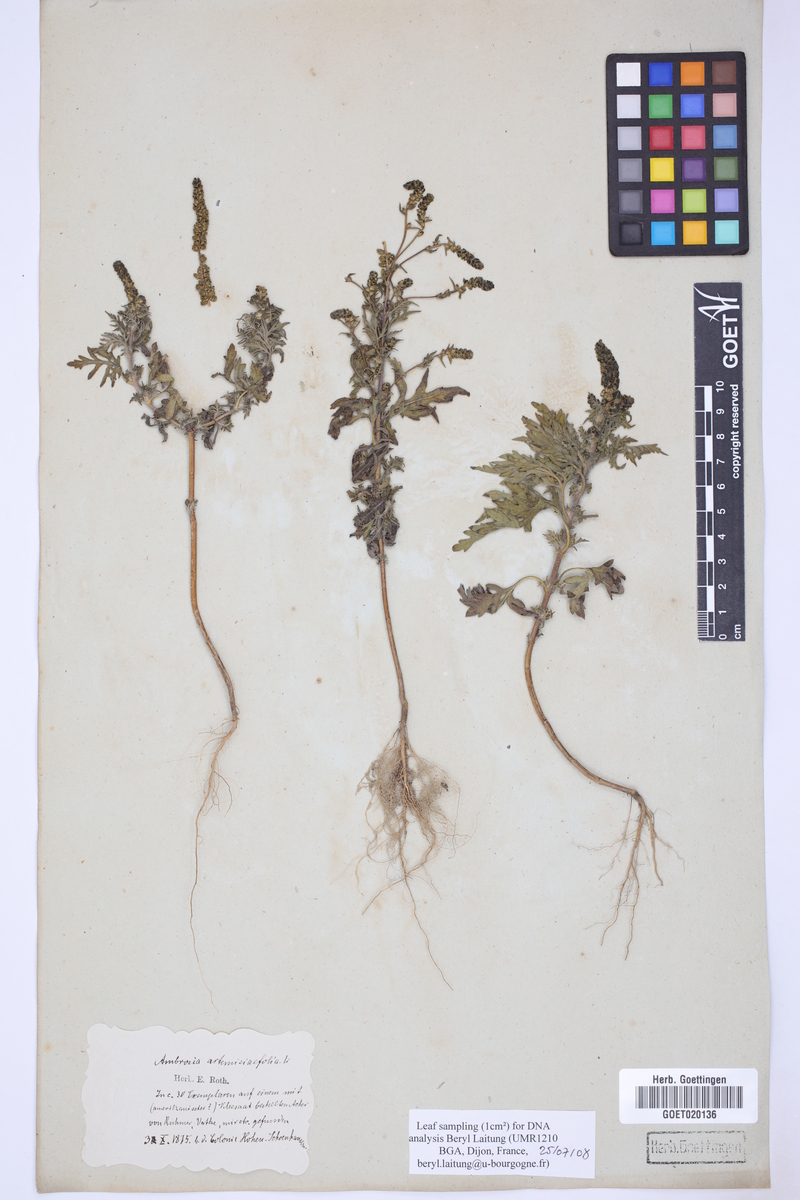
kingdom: Plantae
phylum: Tracheophyta
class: Magnoliopsida
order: Asterales
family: Asteraceae
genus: Ambrosia
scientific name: Ambrosia artemisiifolia
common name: Annual ragweed
